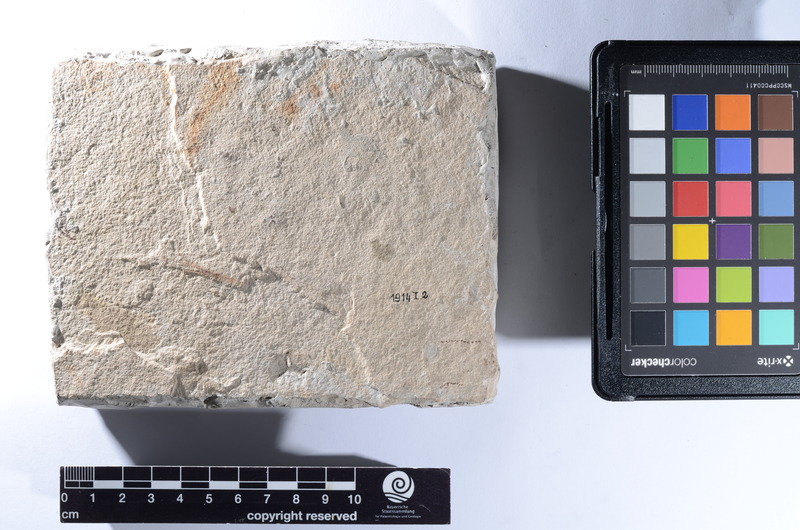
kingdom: Animalia
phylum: Chordata
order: Perciformes
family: Acanthuridae
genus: Acanthurus
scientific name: Acanthurus tenuis
